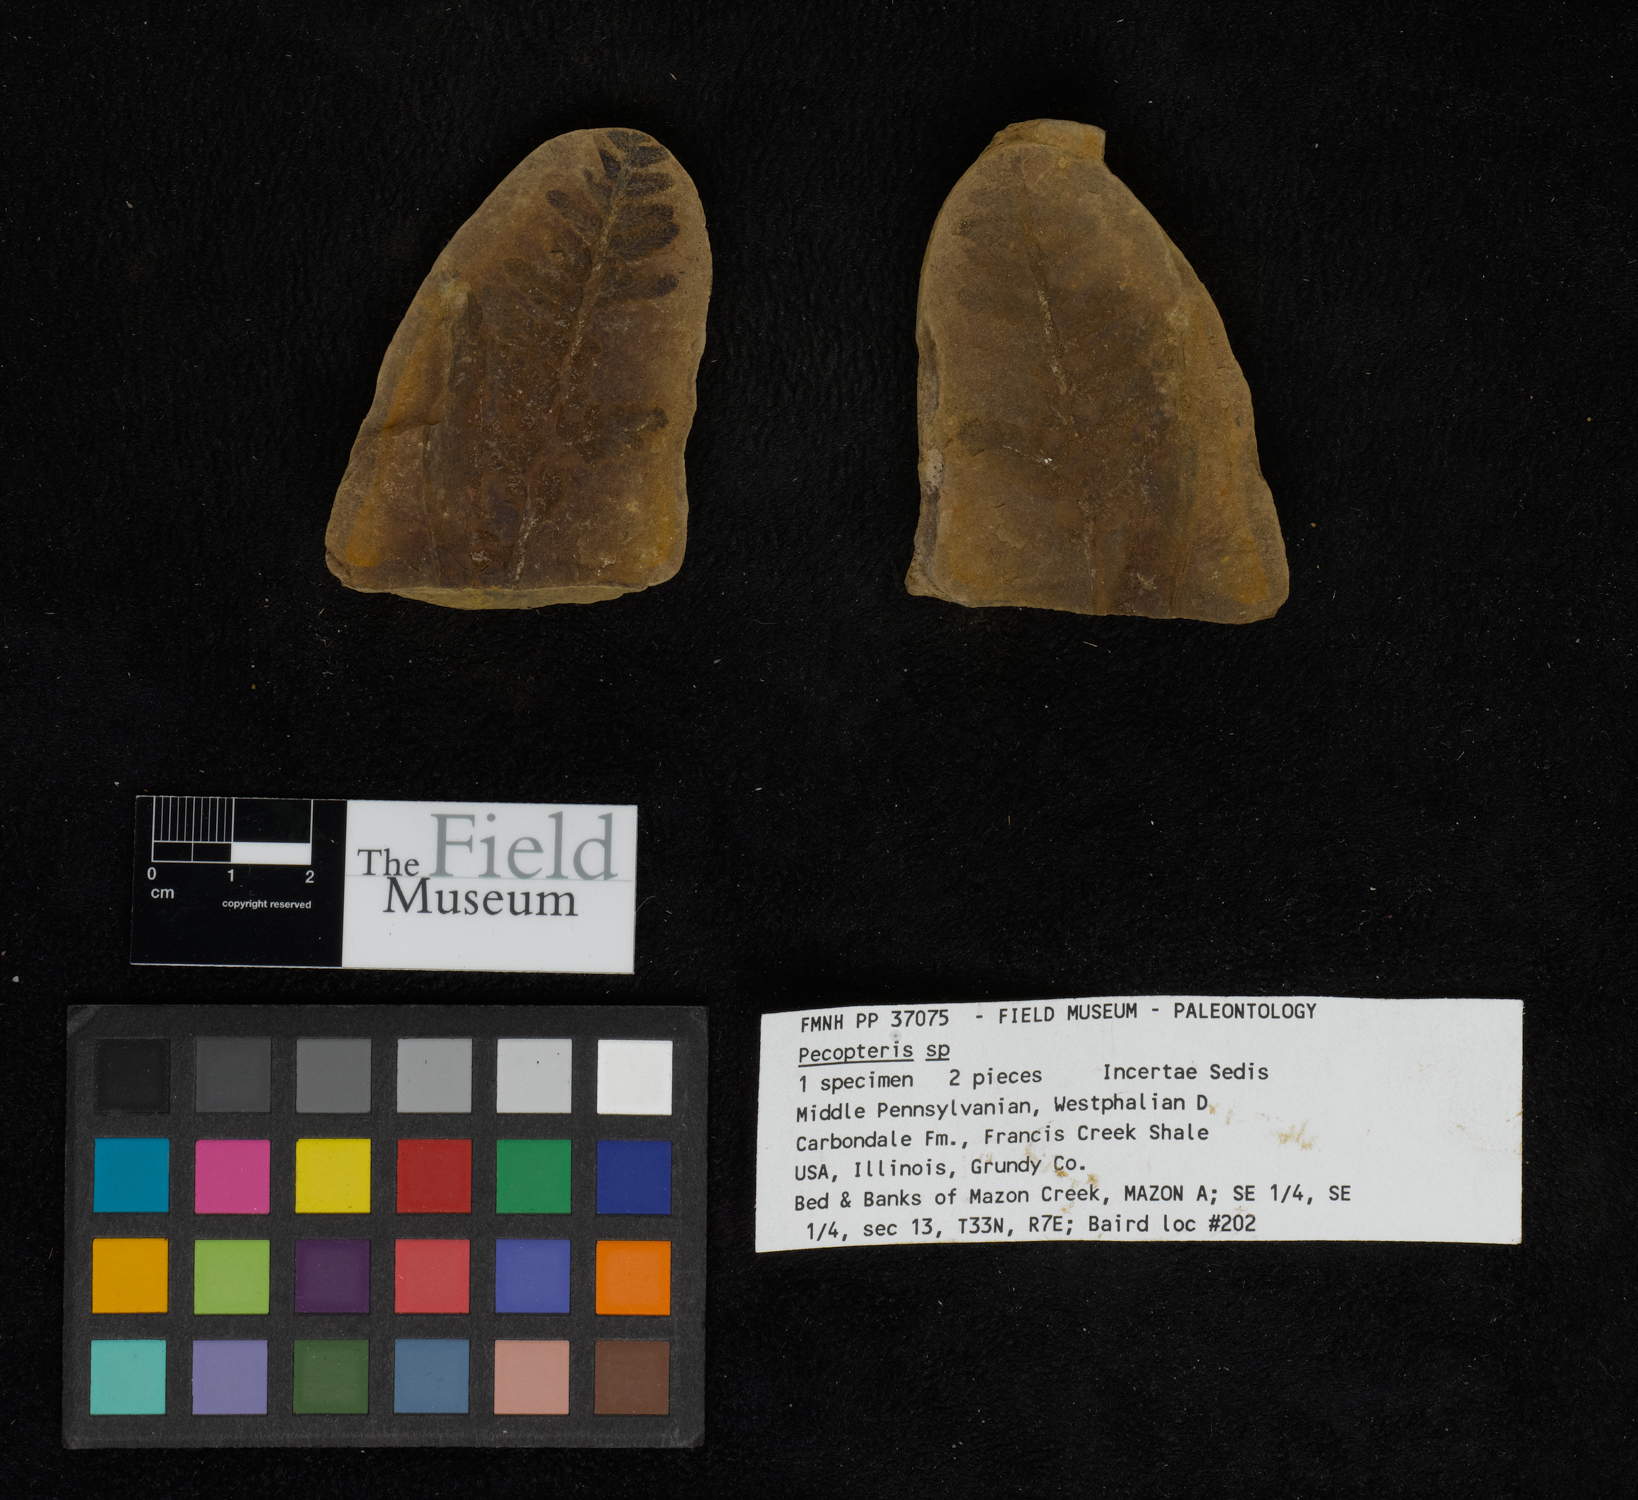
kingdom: Plantae
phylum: Tracheophyta
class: Polypodiopsida
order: Marattiales
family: Asterothecaceae
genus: Pecopteris
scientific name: Pecopteris
